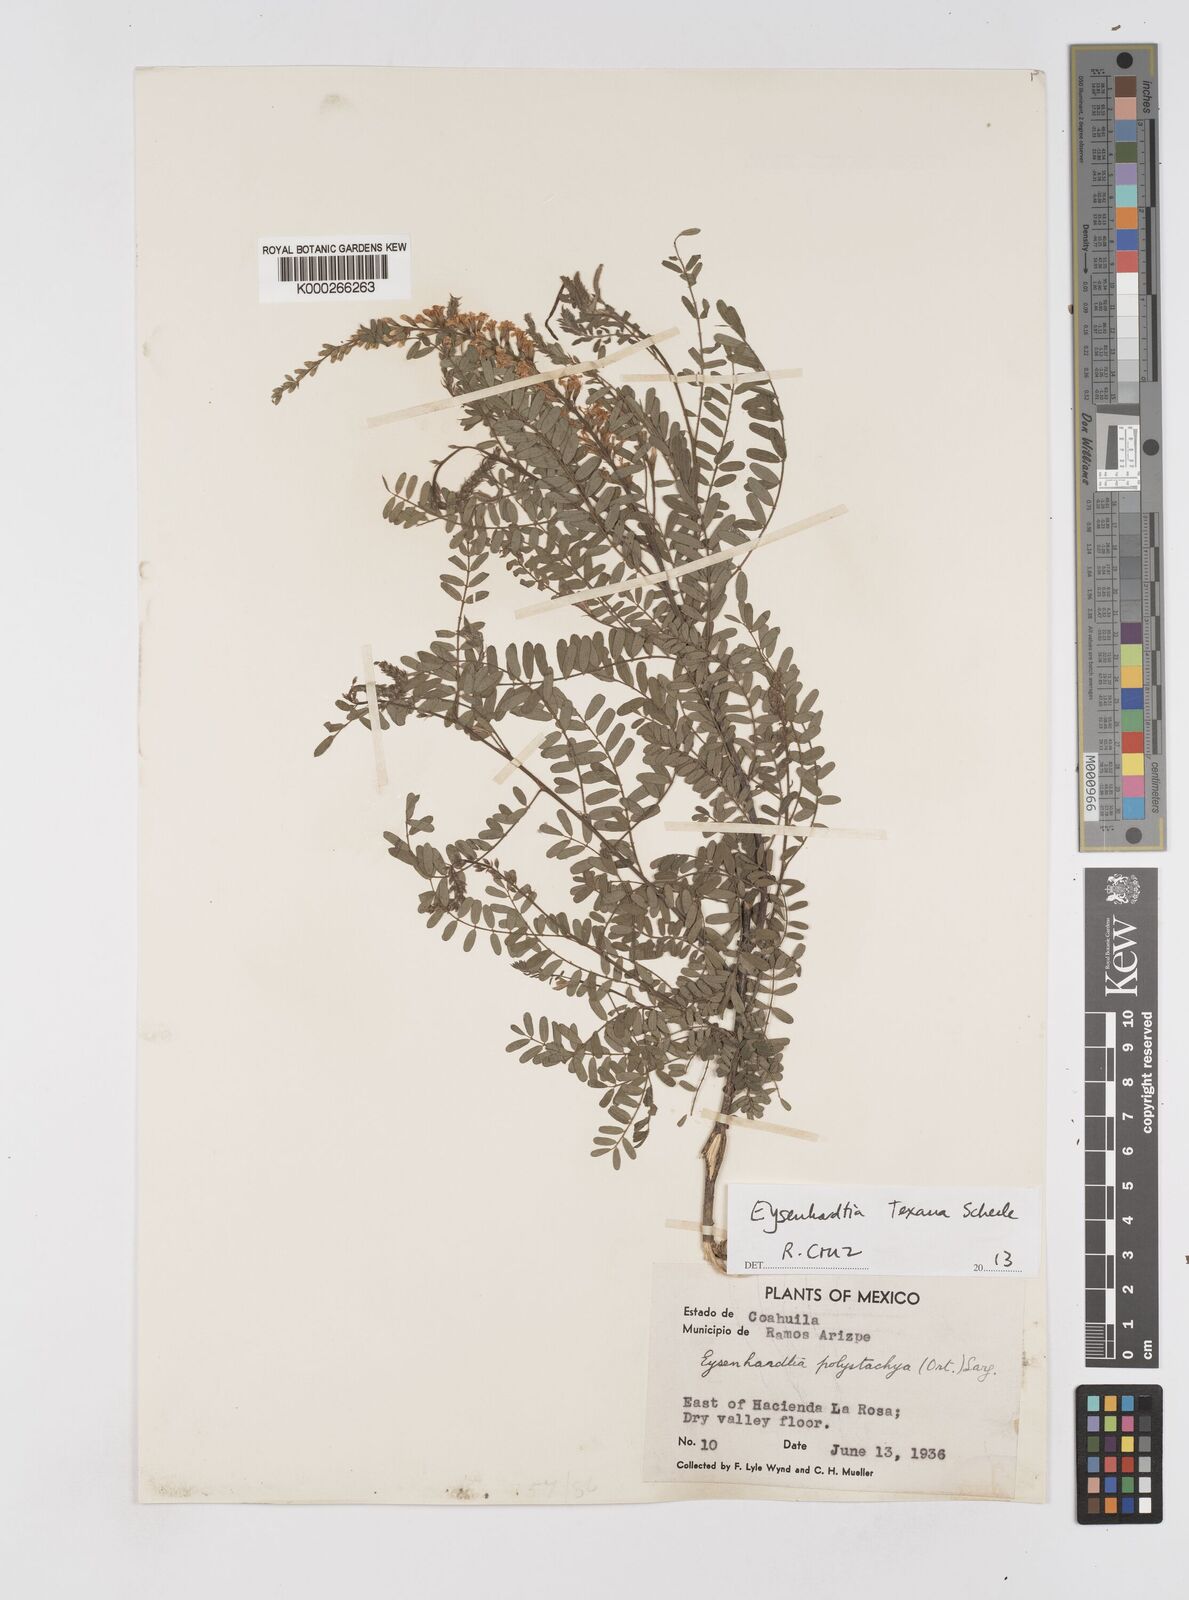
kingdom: Plantae
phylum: Tracheophyta
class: Magnoliopsida
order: Fabales
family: Fabaceae
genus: Eysenhardtia
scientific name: Eysenhardtia texana
